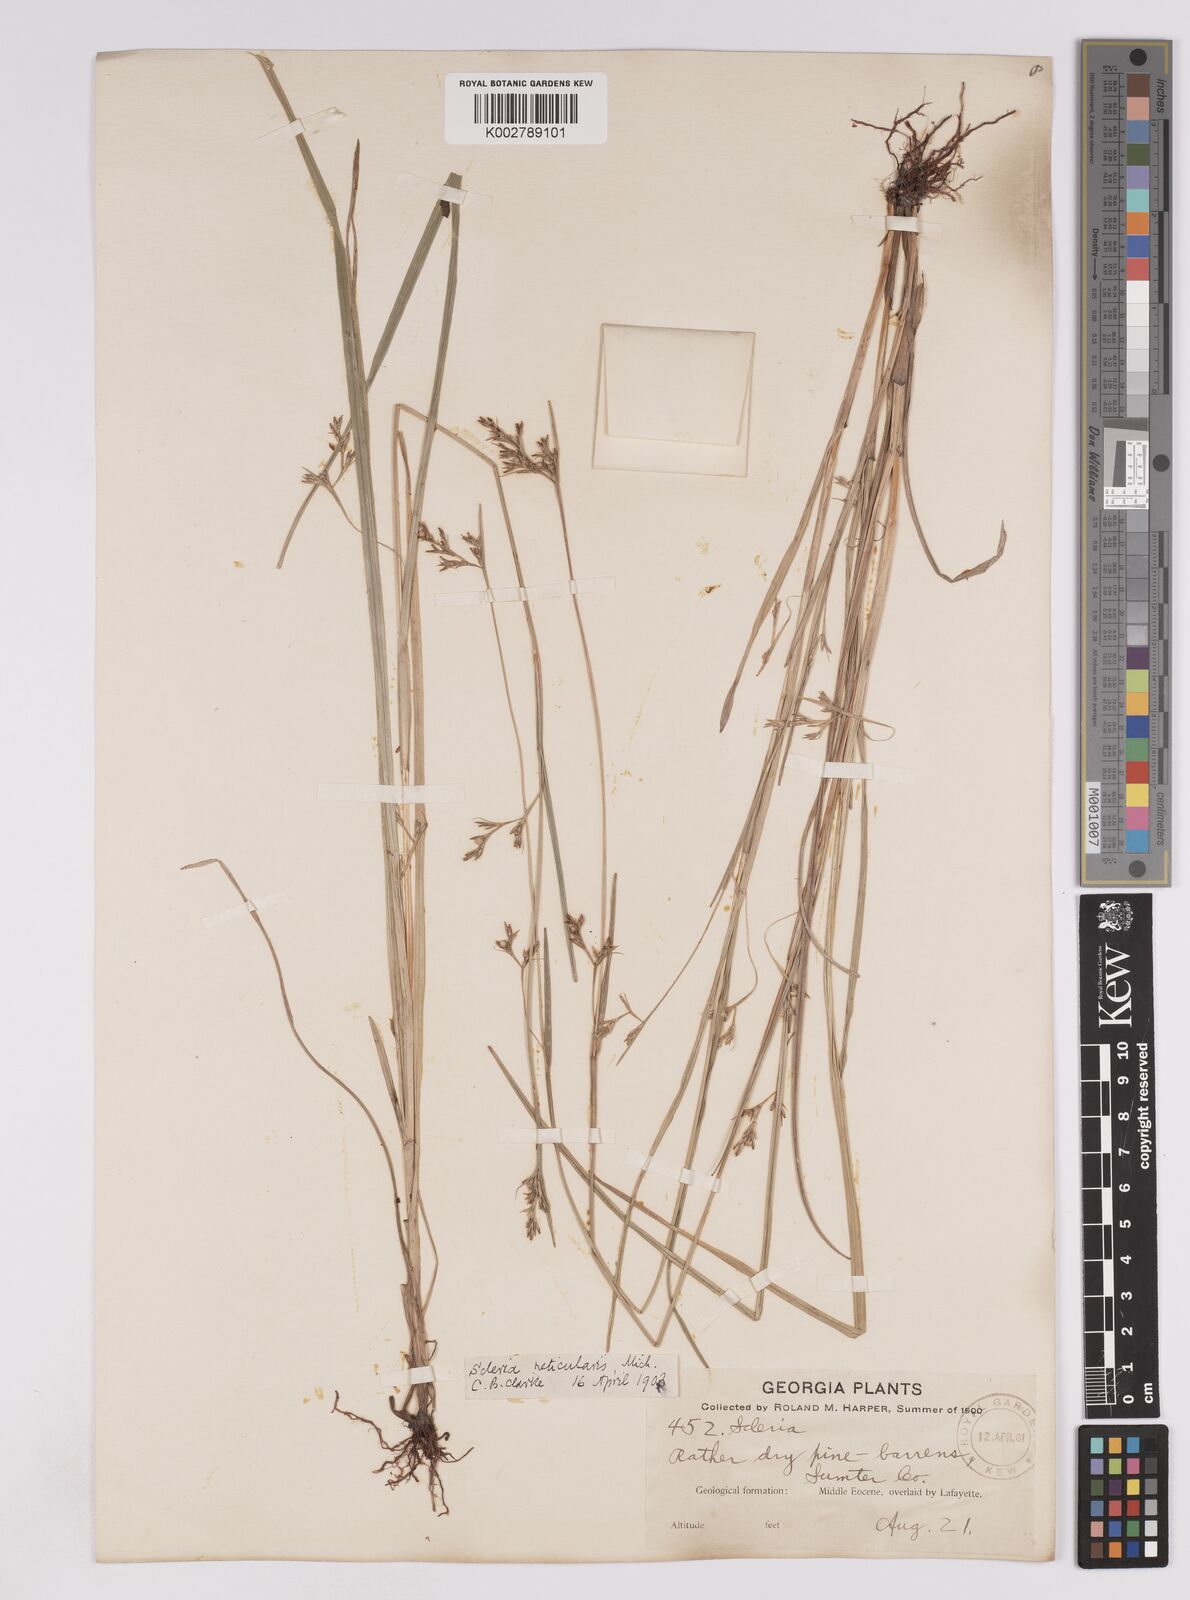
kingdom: Plantae
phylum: Tracheophyta
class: Liliopsida
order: Poales
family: Cyperaceae
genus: Scleria
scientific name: Scleria muehlenbergii
